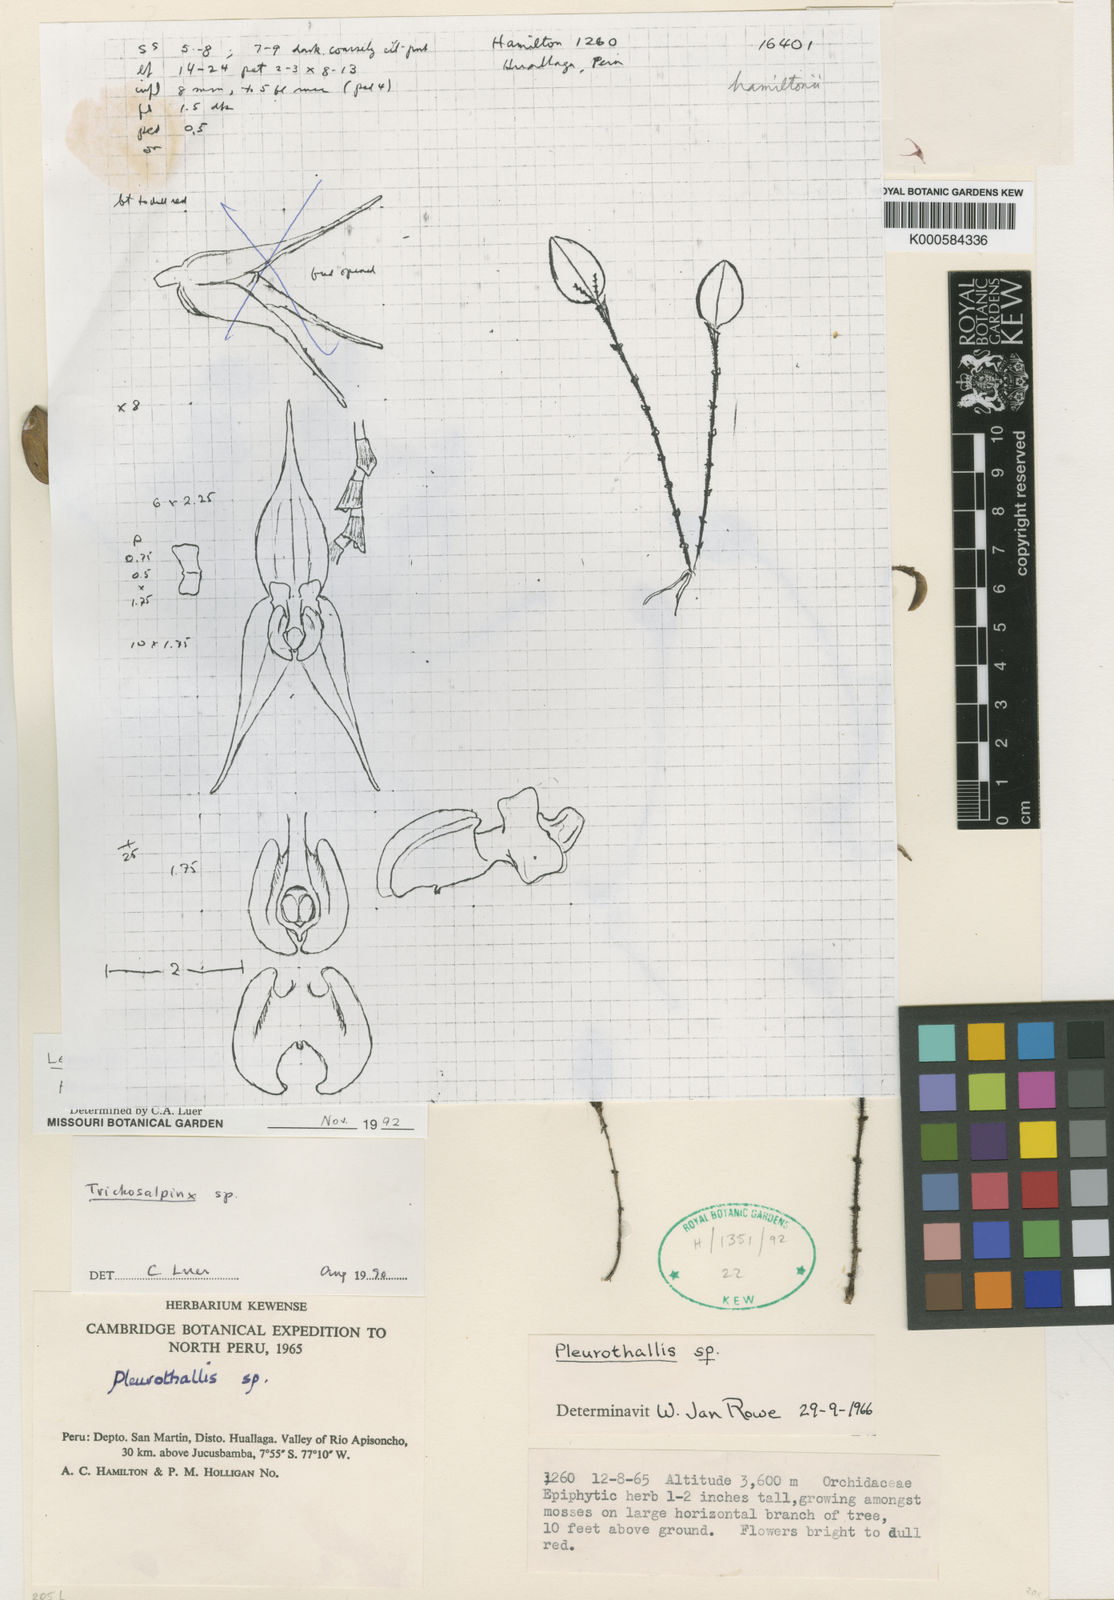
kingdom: Plantae
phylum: Tracheophyta
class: Liliopsida
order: Asparagales
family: Orchidaceae
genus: Lepanthes
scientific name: Lepanthes hamiltonii
